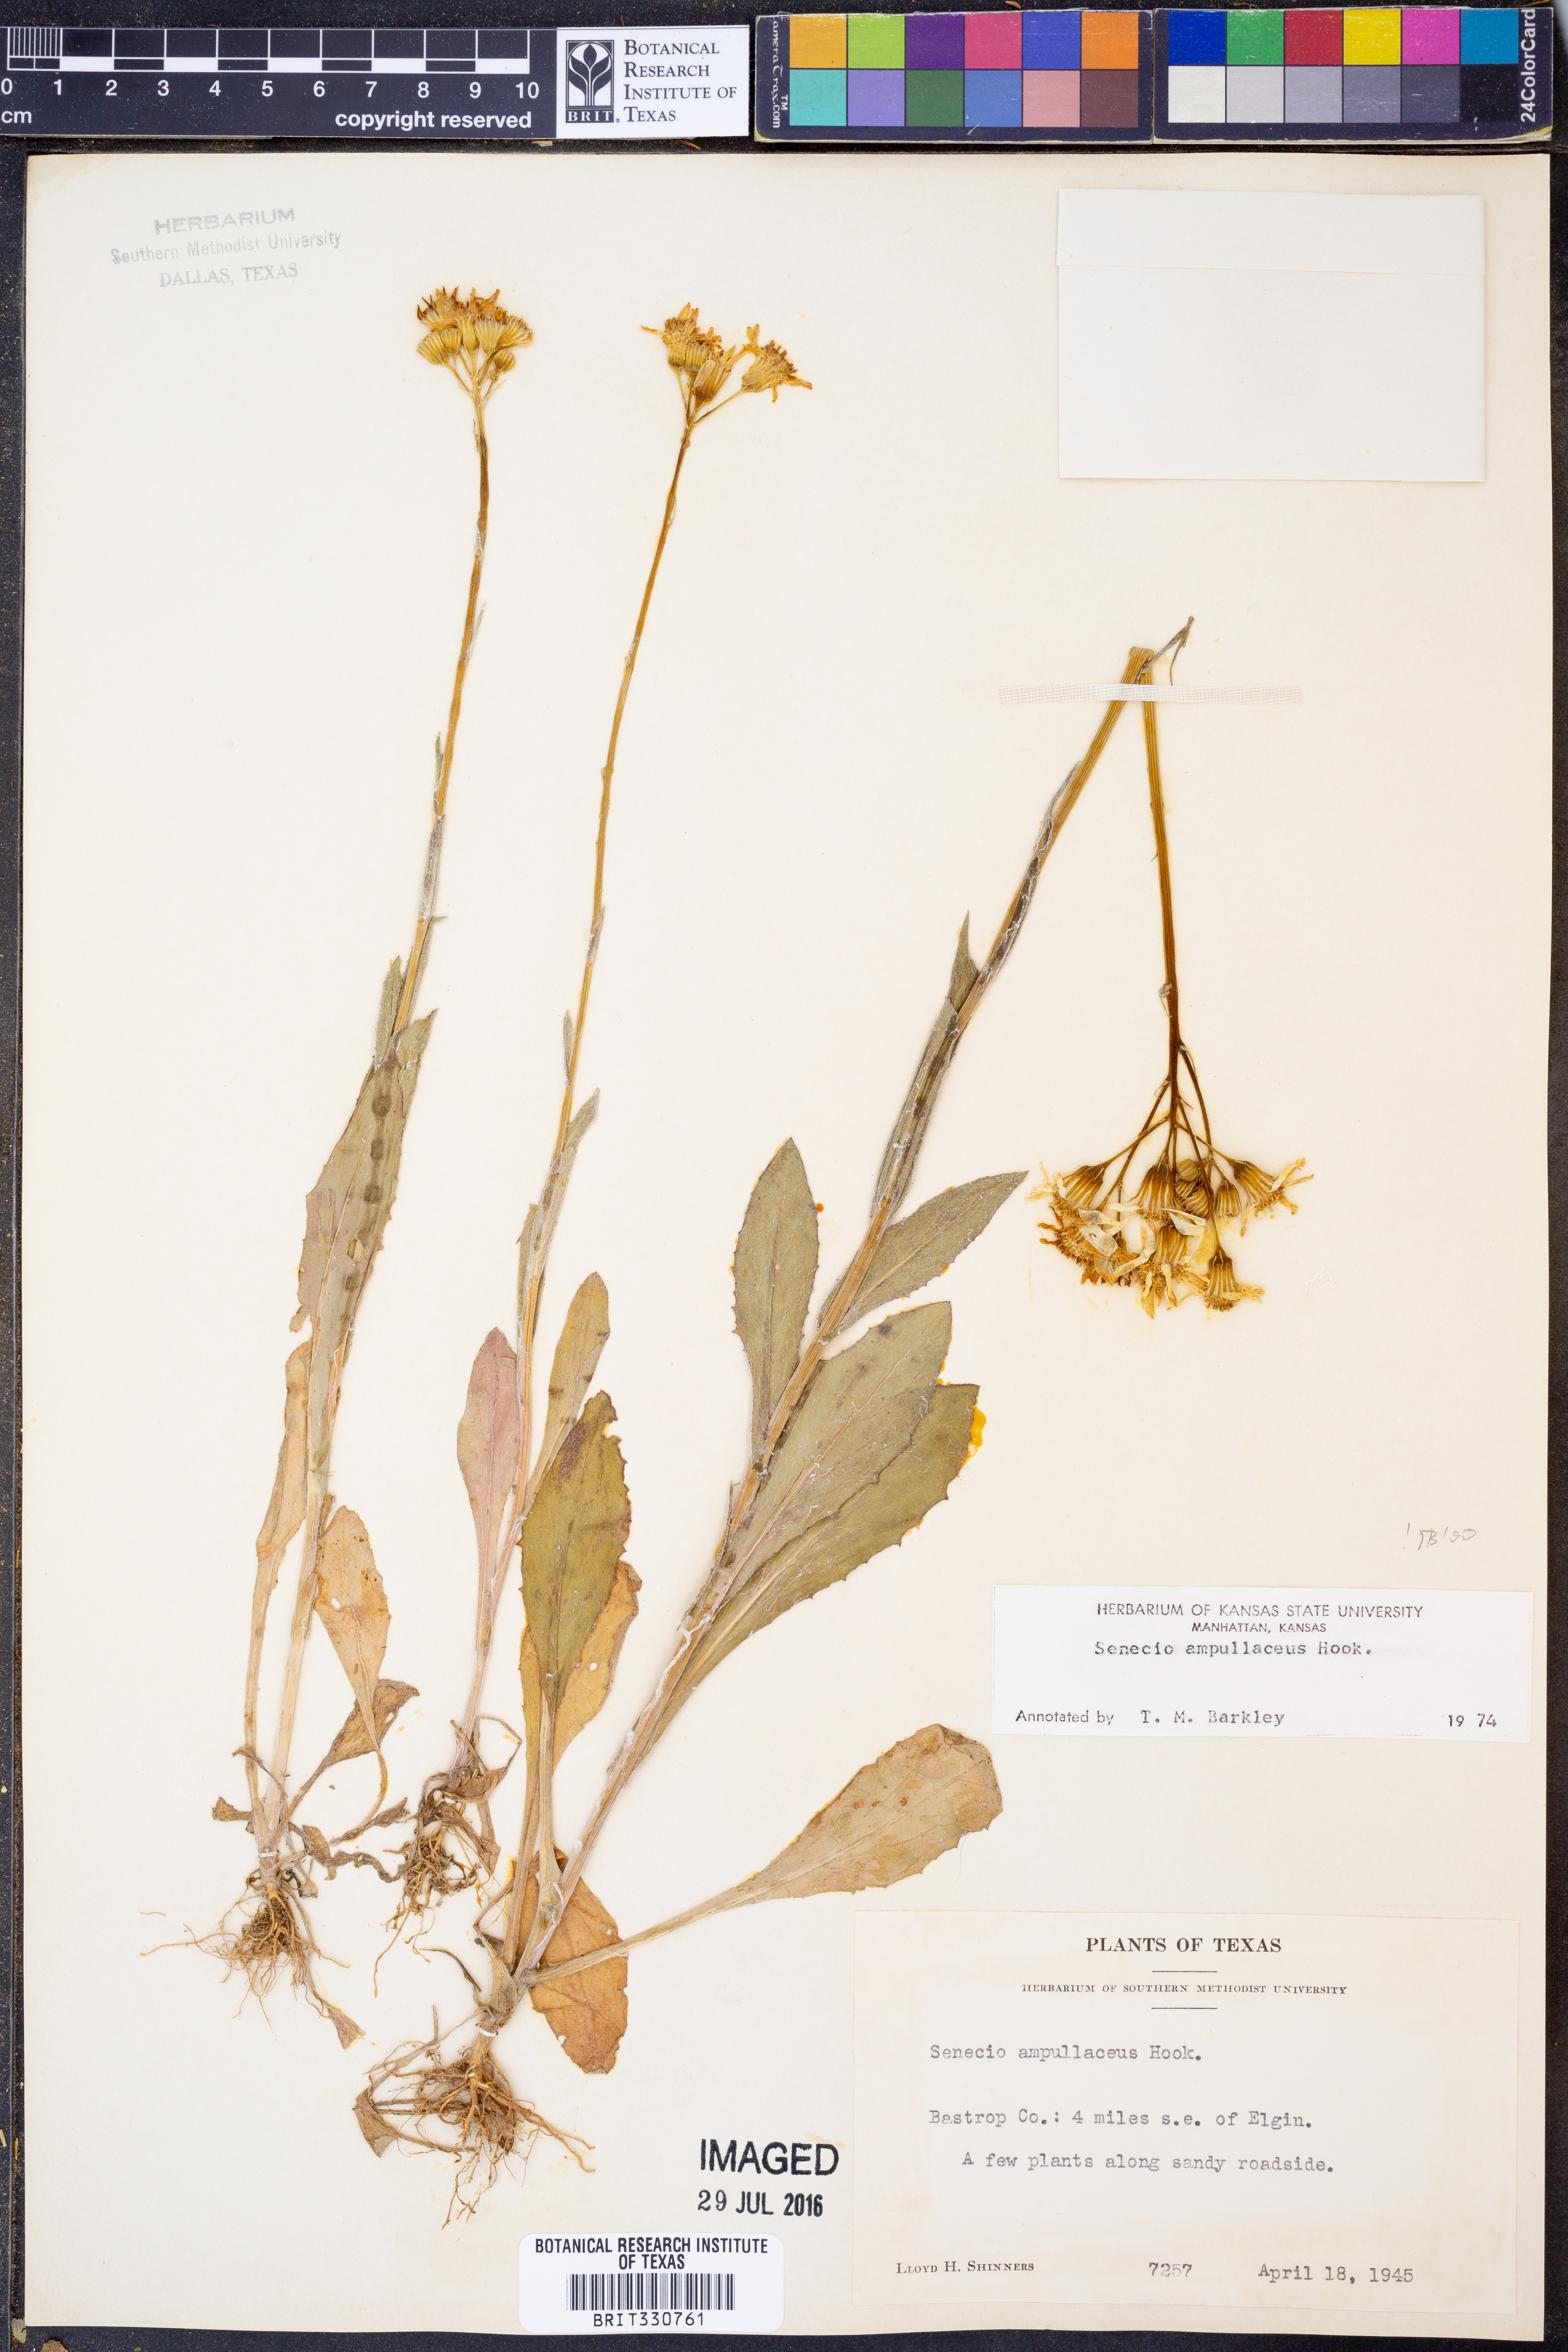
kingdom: Plantae
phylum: Tracheophyta
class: Magnoliopsida
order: Asterales
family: Asteraceae
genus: Senecio
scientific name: Senecio ampullaceus
